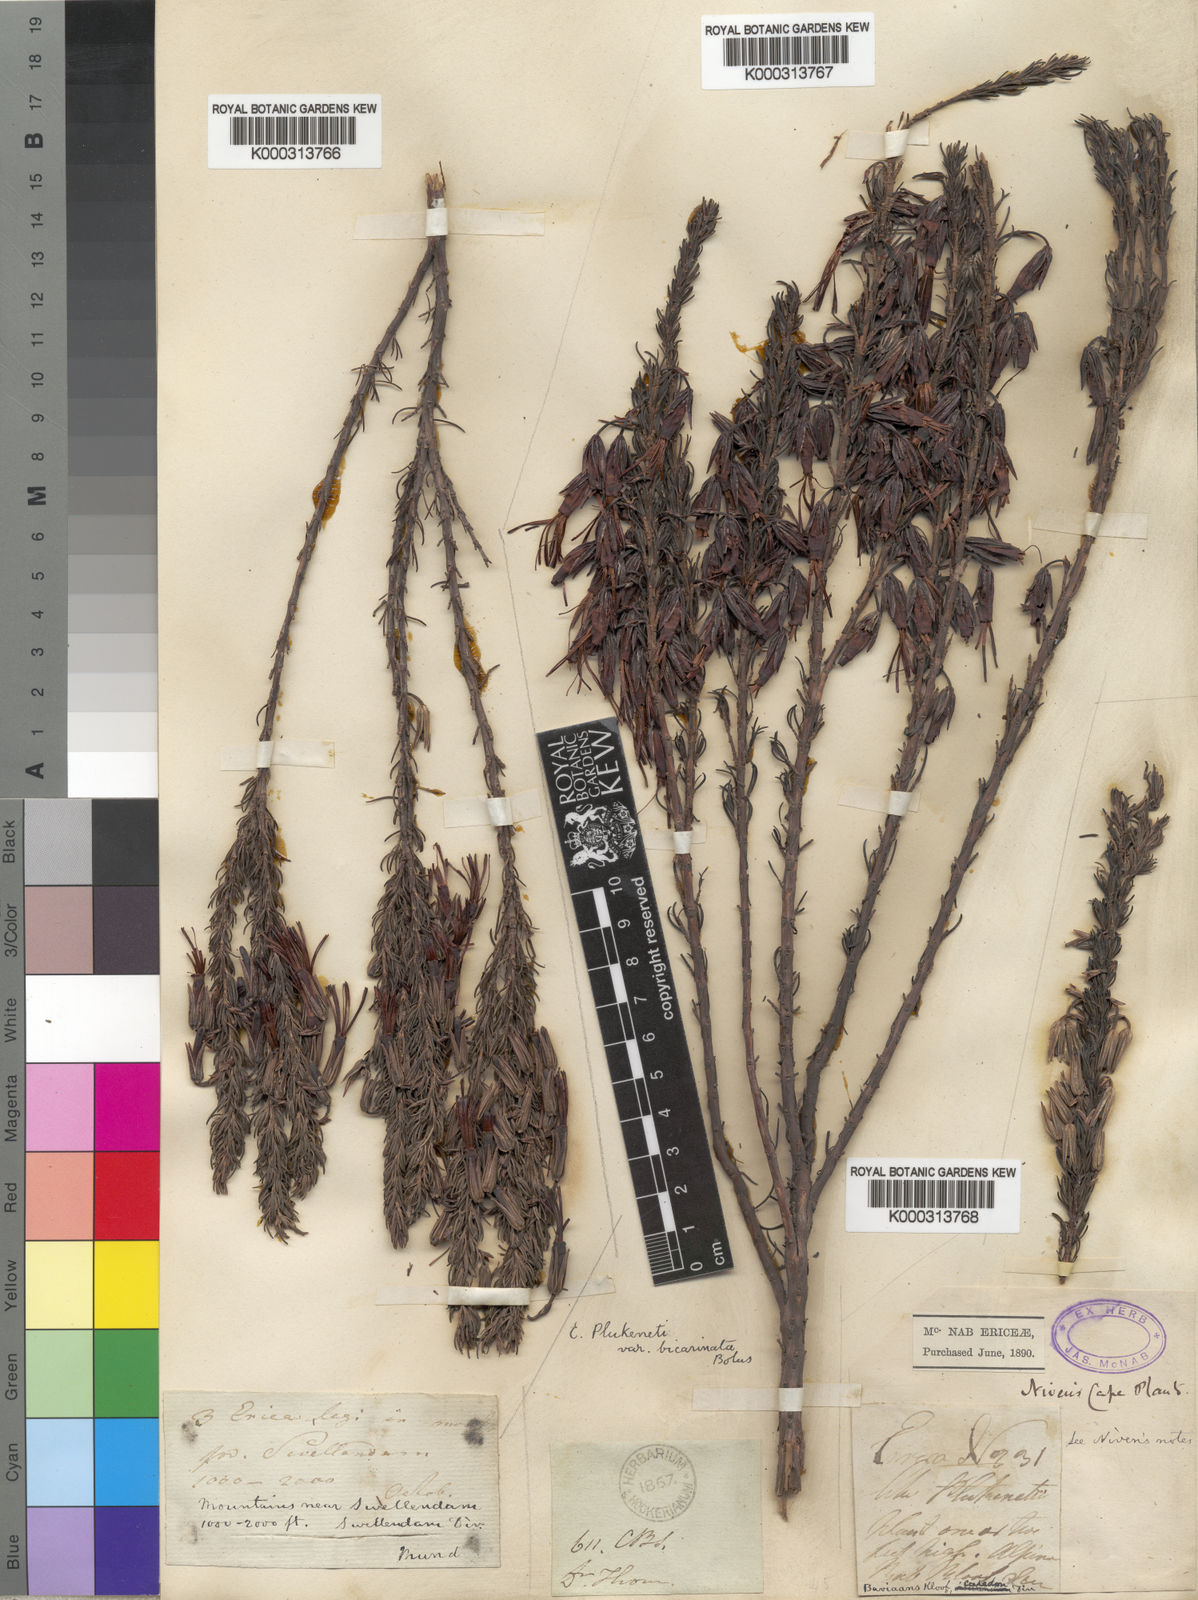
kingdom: Plantae
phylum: Tracheophyta
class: Magnoliopsida
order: Ericales
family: Ericaceae
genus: Erica
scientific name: Erica plukenetii
